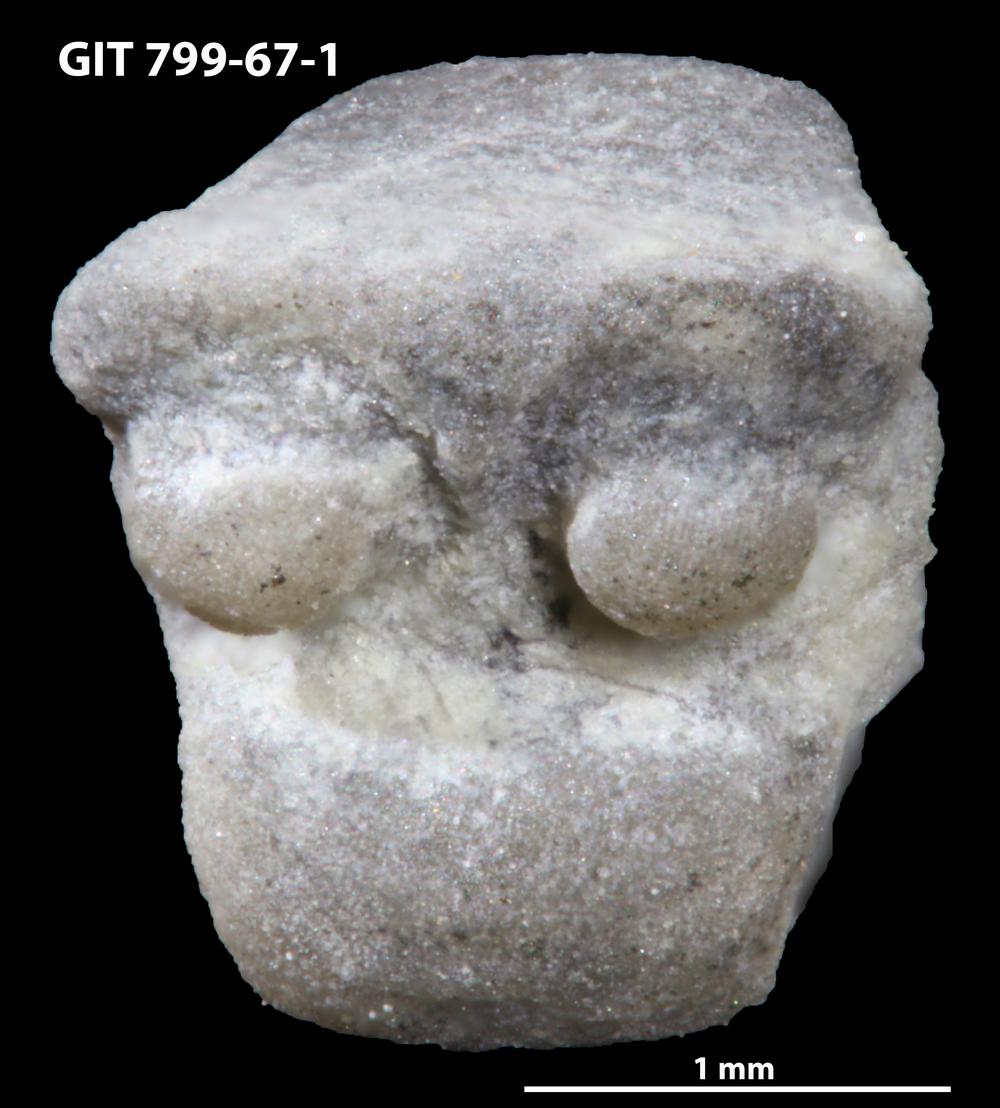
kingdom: Animalia
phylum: Echinodermata
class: Crinoidea
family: Cyclocystoididae
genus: Polytryphocycloides
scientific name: Polytryphocycloides
